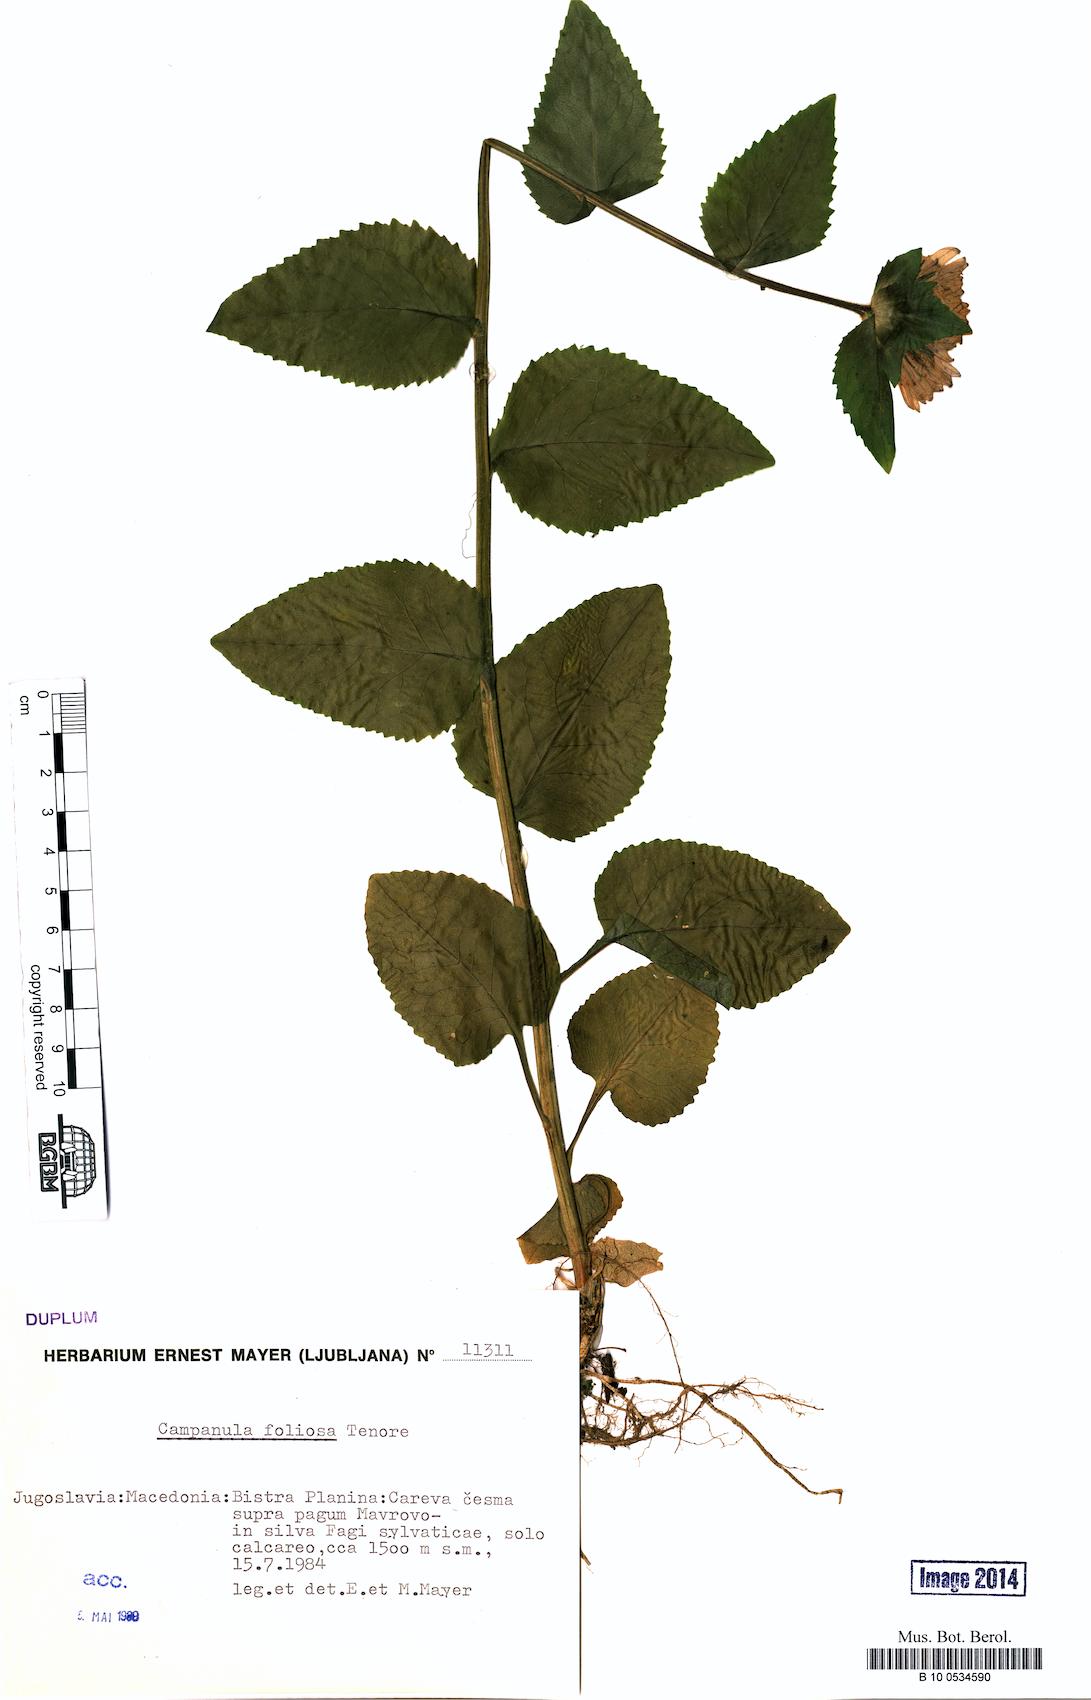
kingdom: Plantae
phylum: Tracheophyta
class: Magnoliopsida
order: Asterales
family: Campanulaceae
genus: Campanula
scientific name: Campanula foliosa
